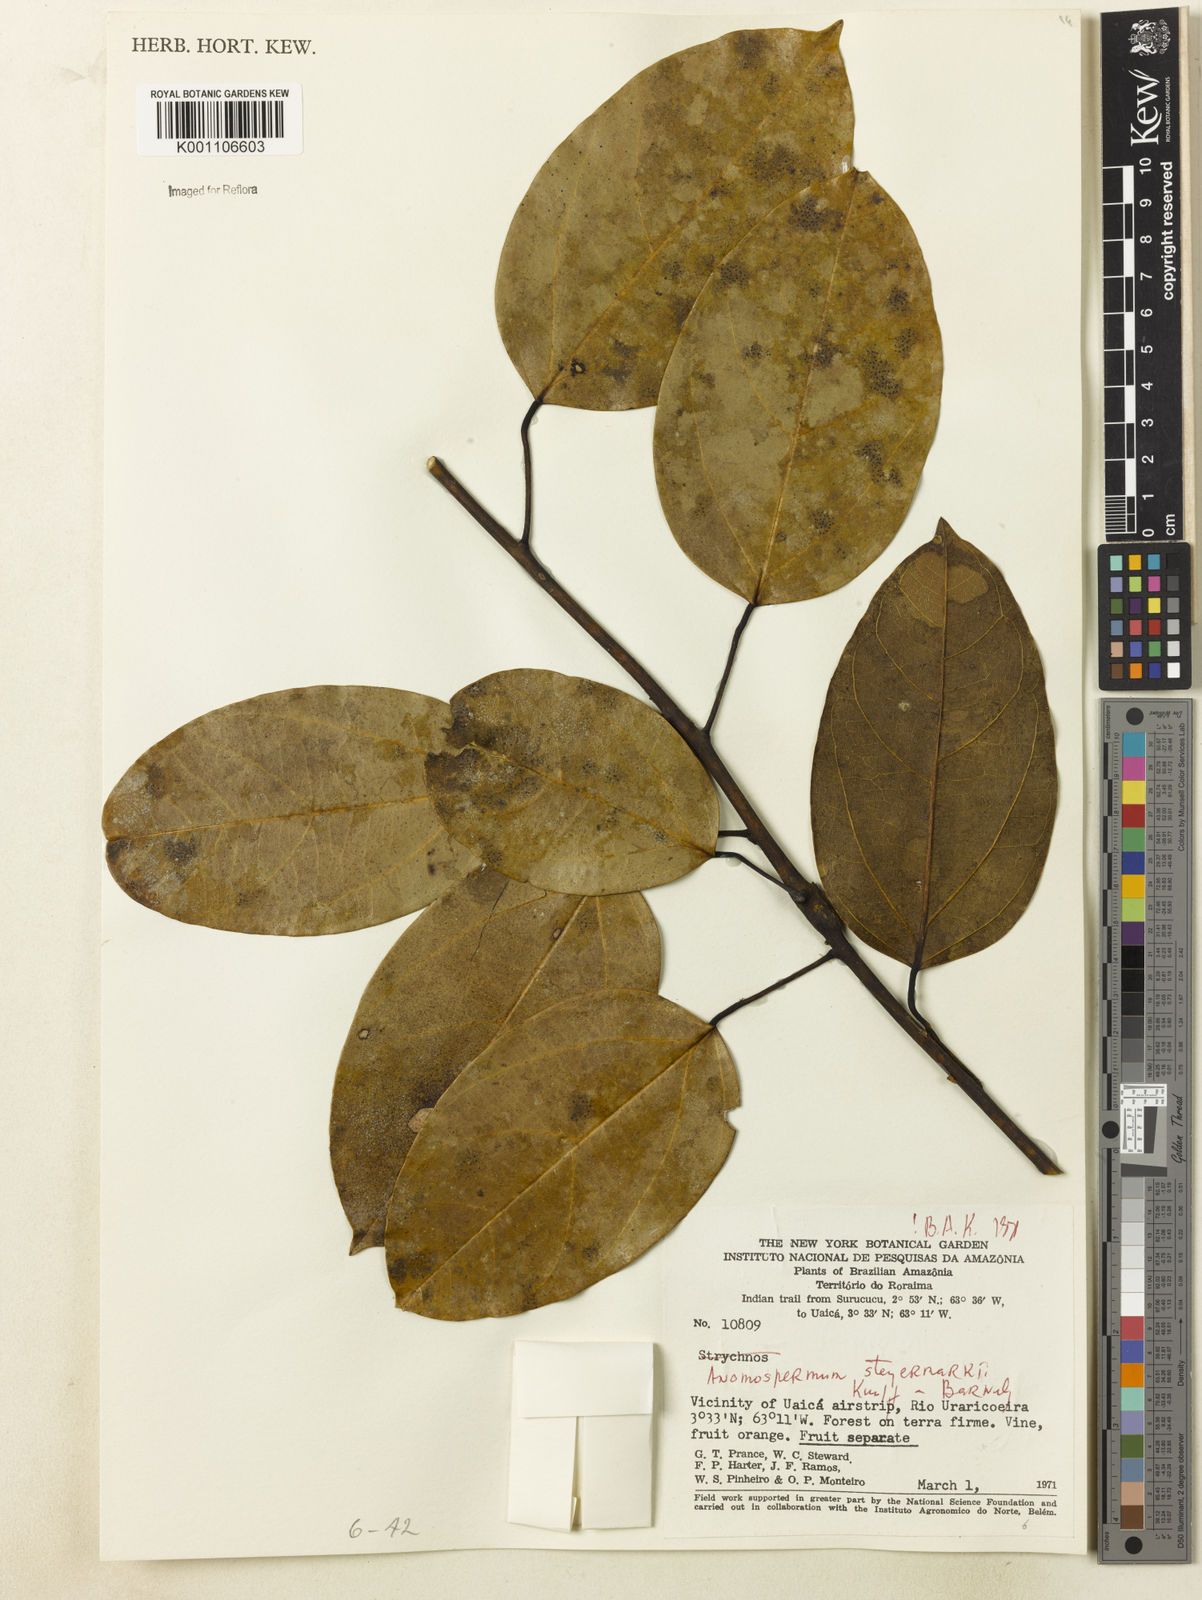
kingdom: Plantae
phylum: Tracheophyta
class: Magnoliopsida
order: Ranunculales
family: Menispermaceae
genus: Abuta
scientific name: Abuta steyermarkii
